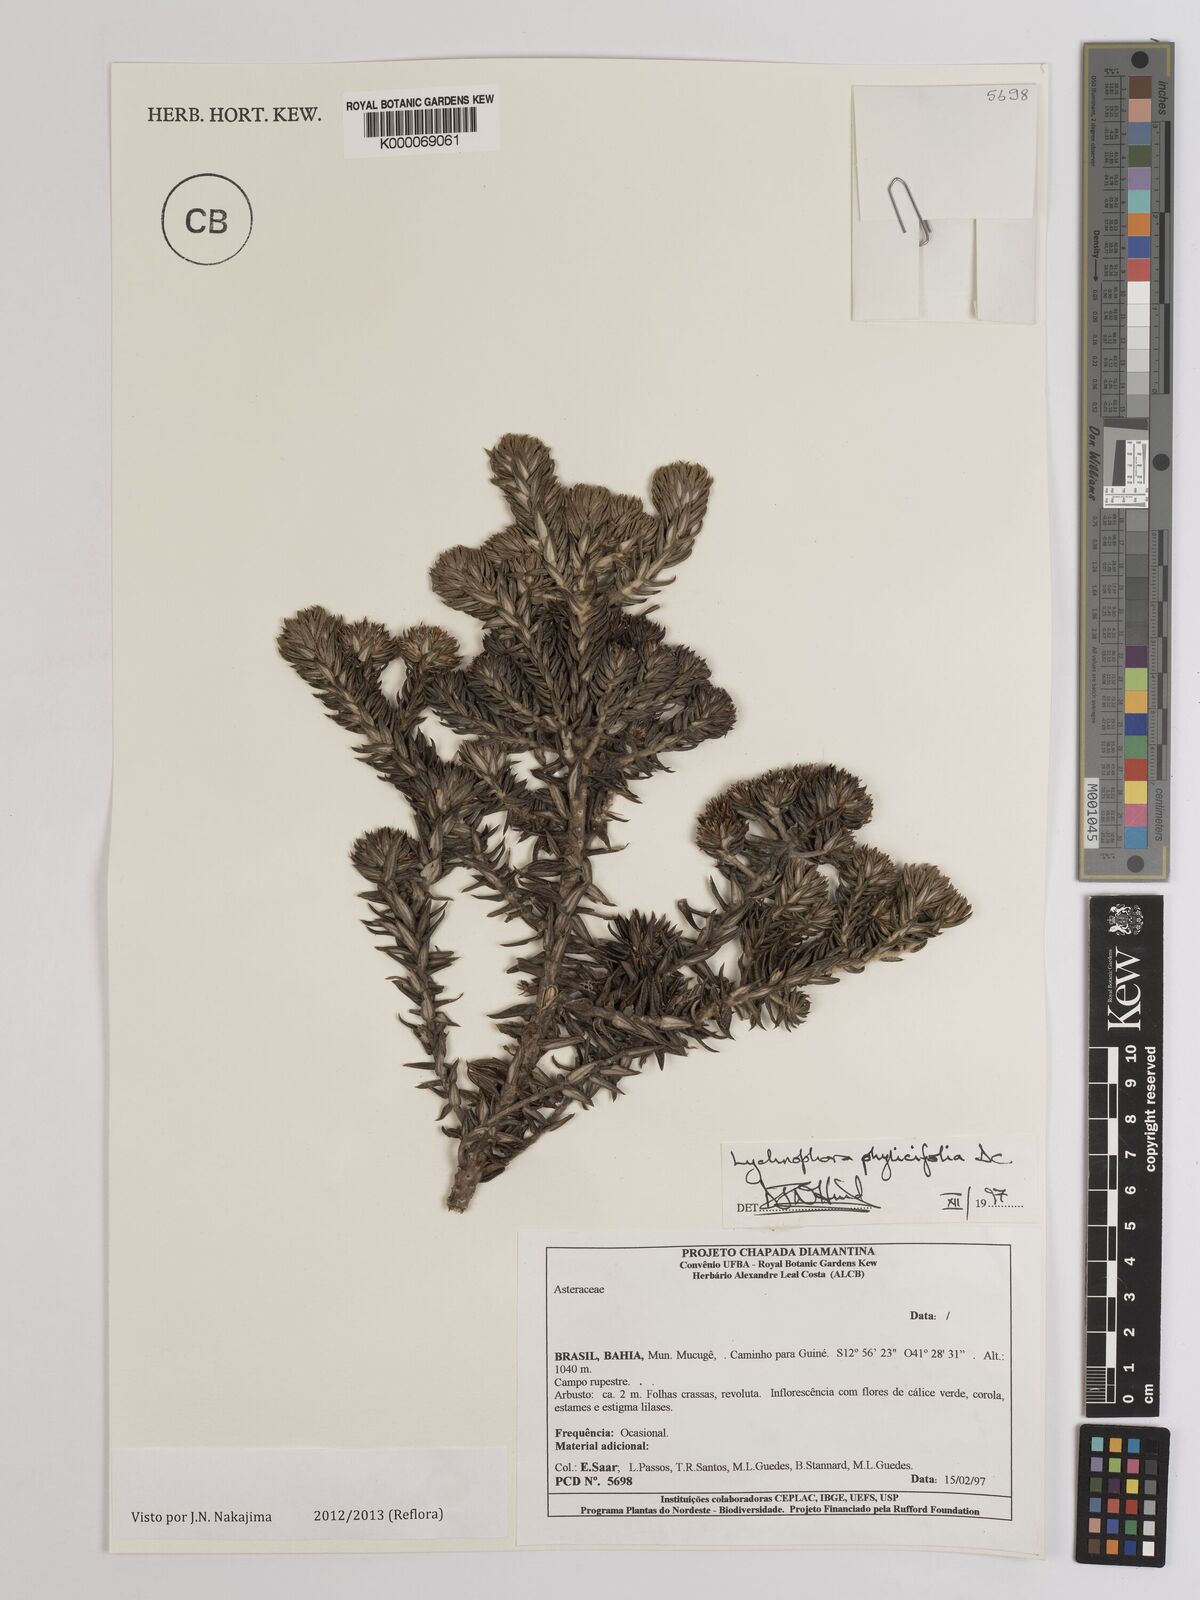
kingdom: Plantae
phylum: Tracheophyta
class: Magnoliopsida
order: Asterales
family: Asteraceae
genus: Lychnophora
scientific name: Lychnophora phylicifolia
